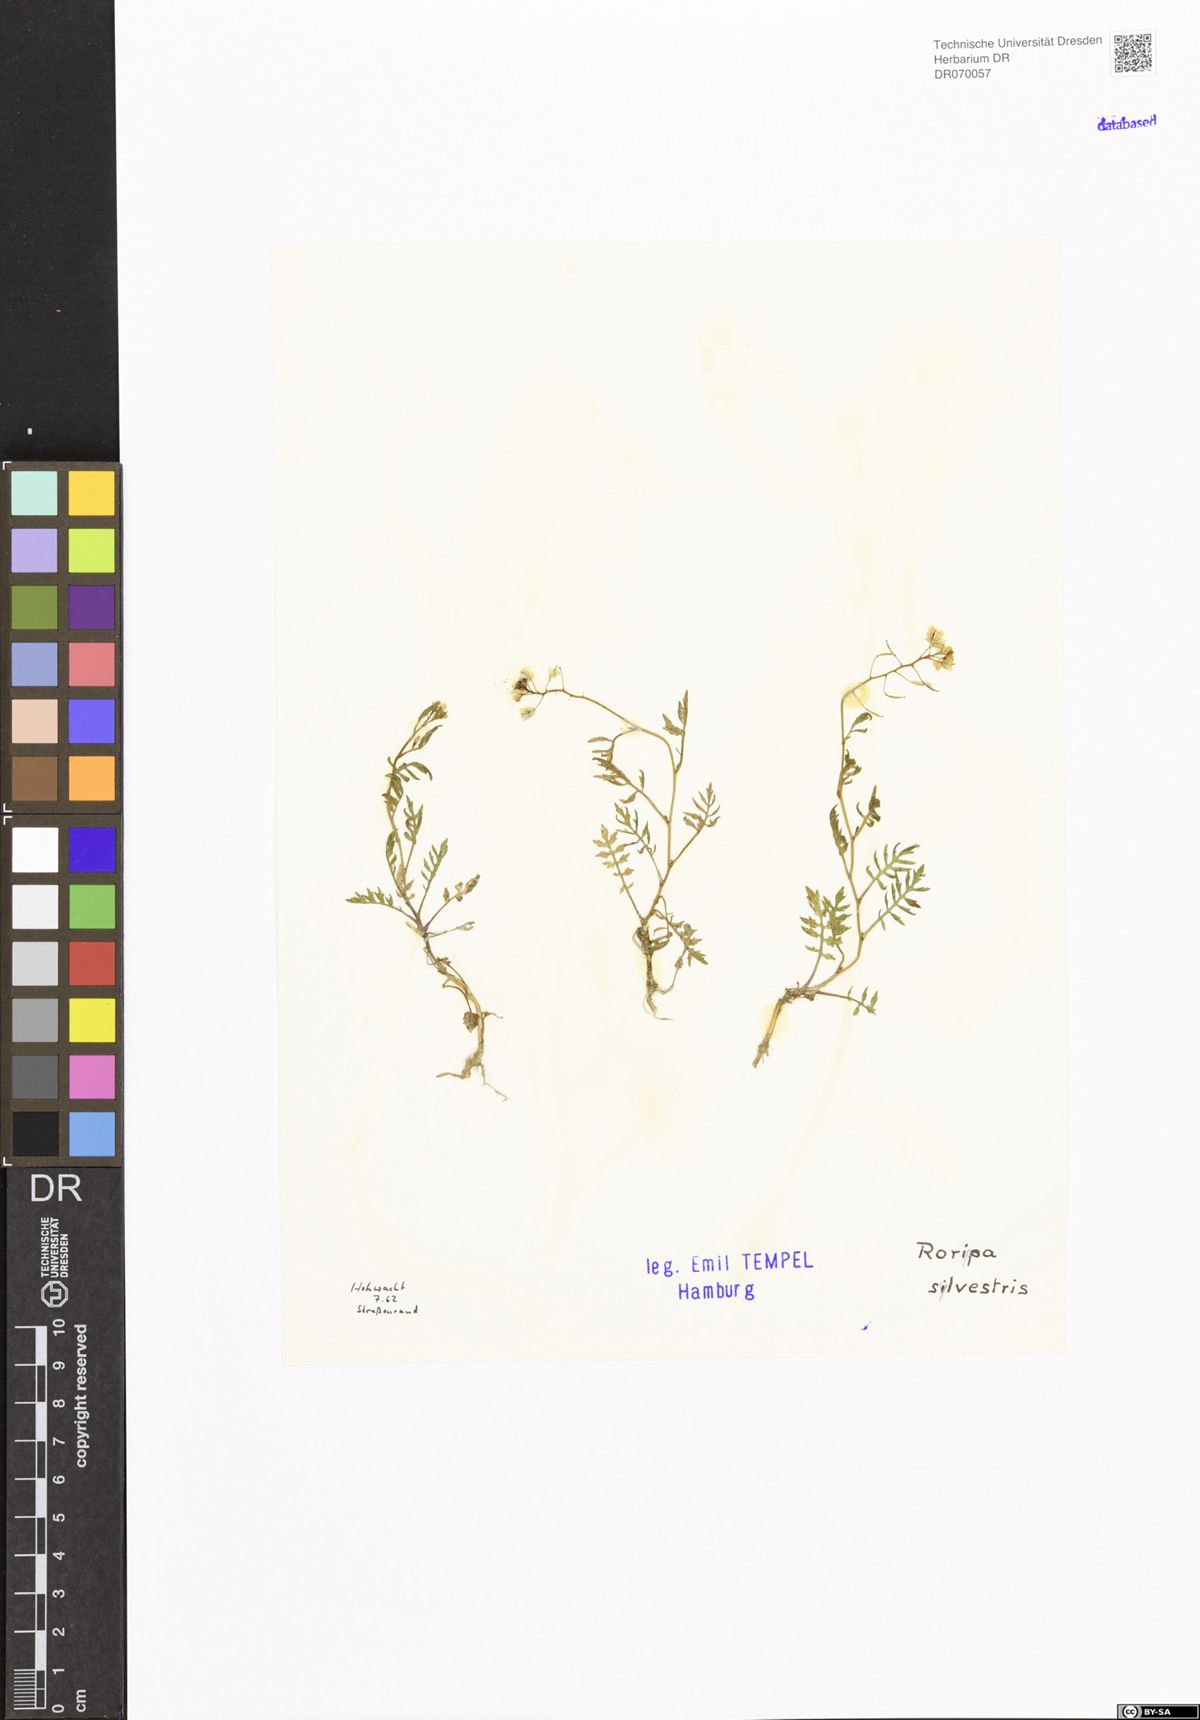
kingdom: Plantae
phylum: Tracheophyta
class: Magnoliopsida
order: Brassicales
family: Brassicaceae
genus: Rorippa
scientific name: Rorippa sylvestris
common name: Creeping yellowcress
